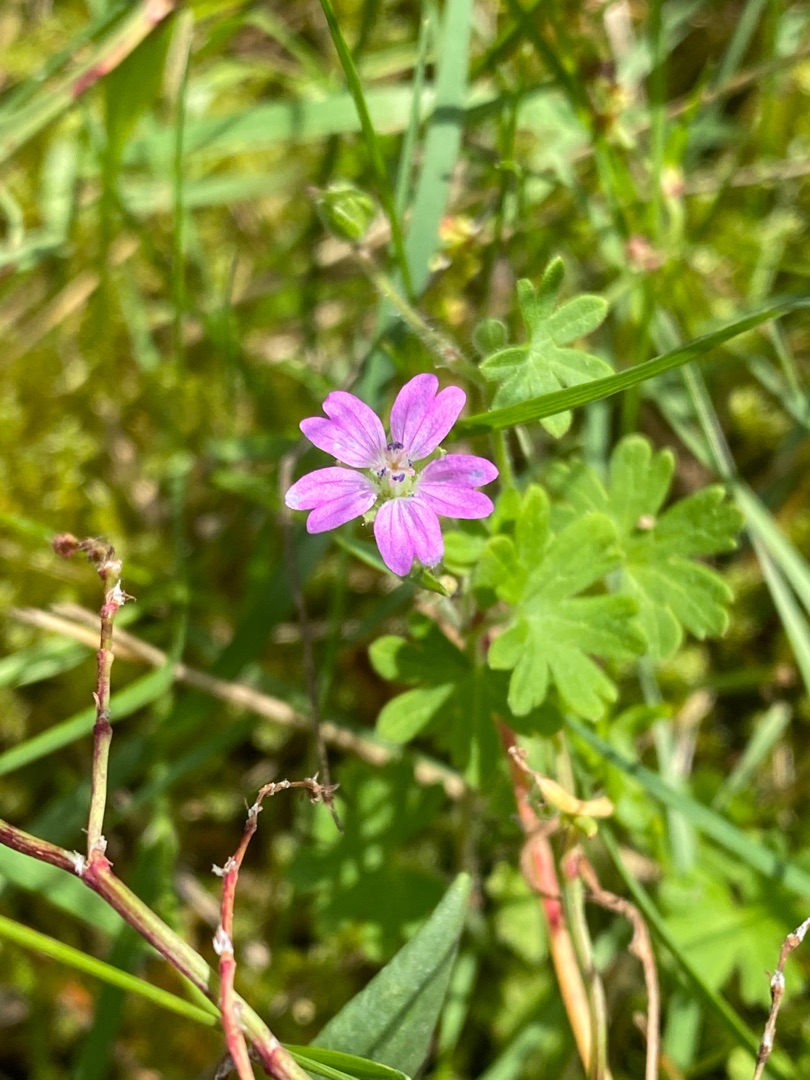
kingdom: Plantae
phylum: Tracheophyta
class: Magnoliopsida
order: Geraniales
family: Geraniaceae
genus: Geranium
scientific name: Geranium molle
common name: Blød storkenæb
